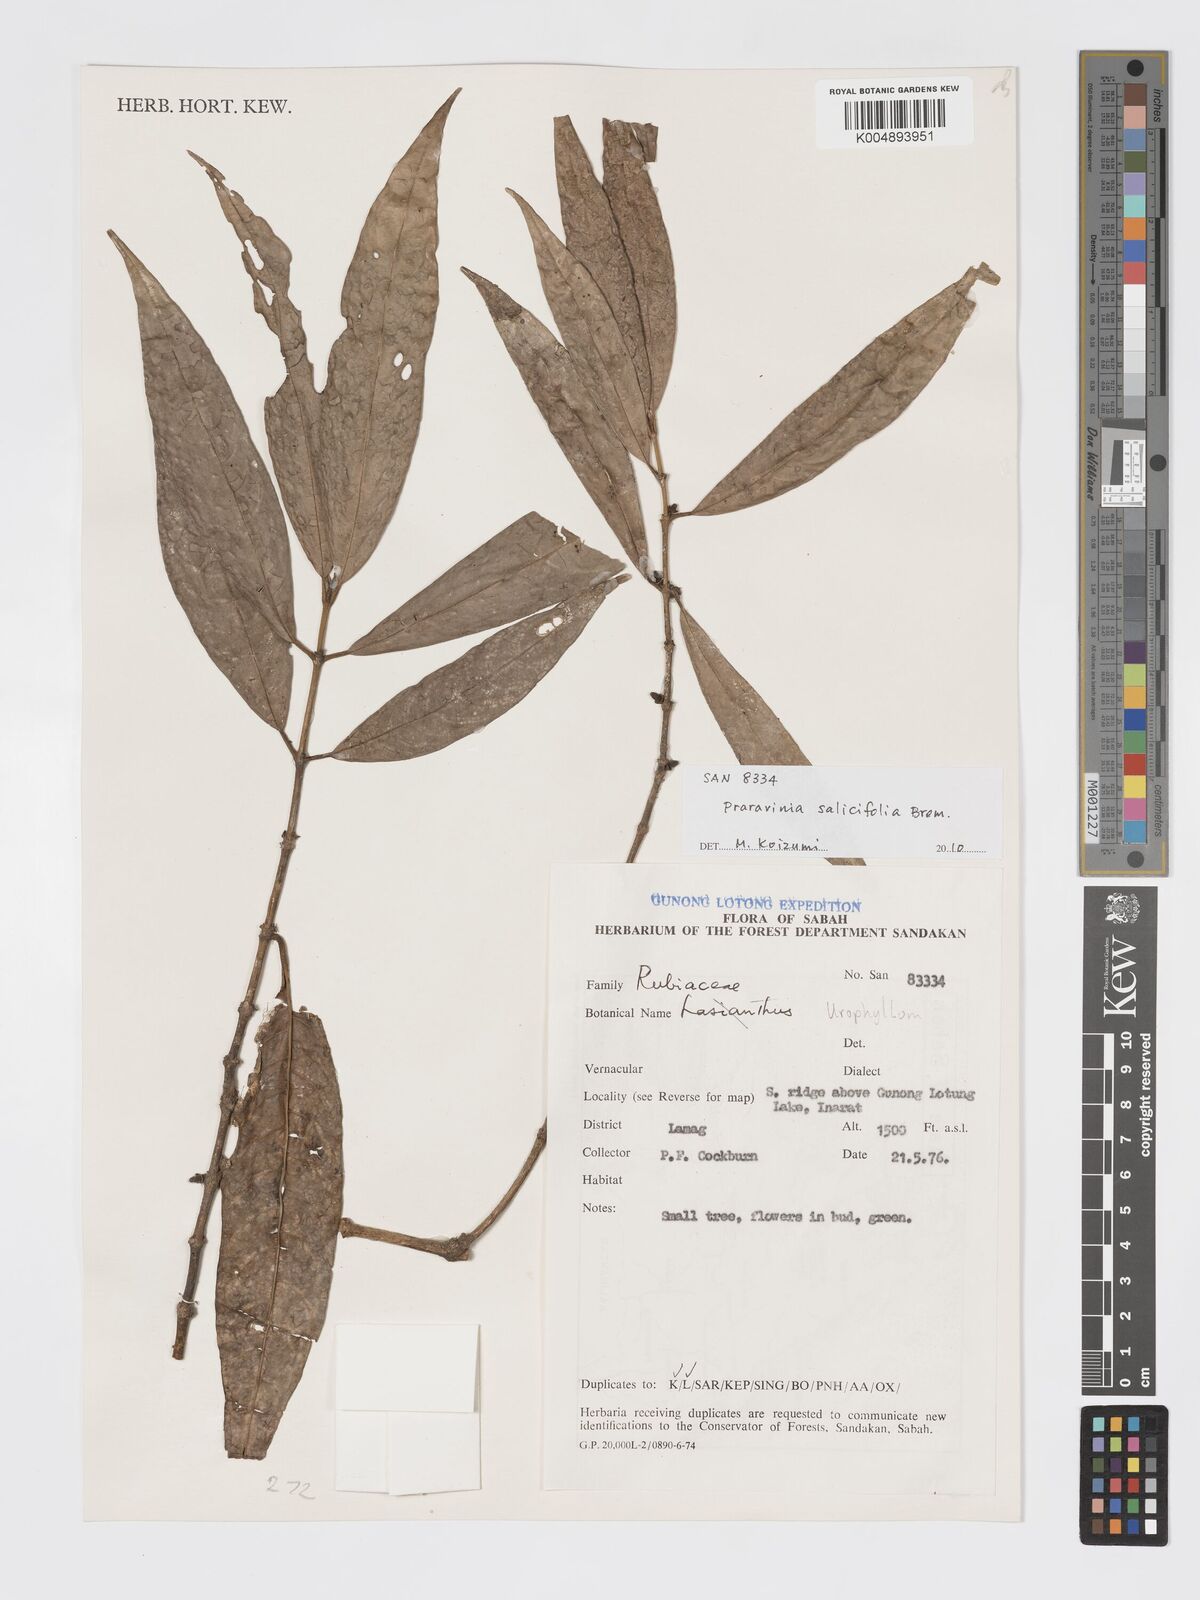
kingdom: Plantae
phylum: Tracheophyta
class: Magnoliopsida
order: Gentianales
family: Rubiaceae
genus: Praravinia
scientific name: Praravinia salicifolia
